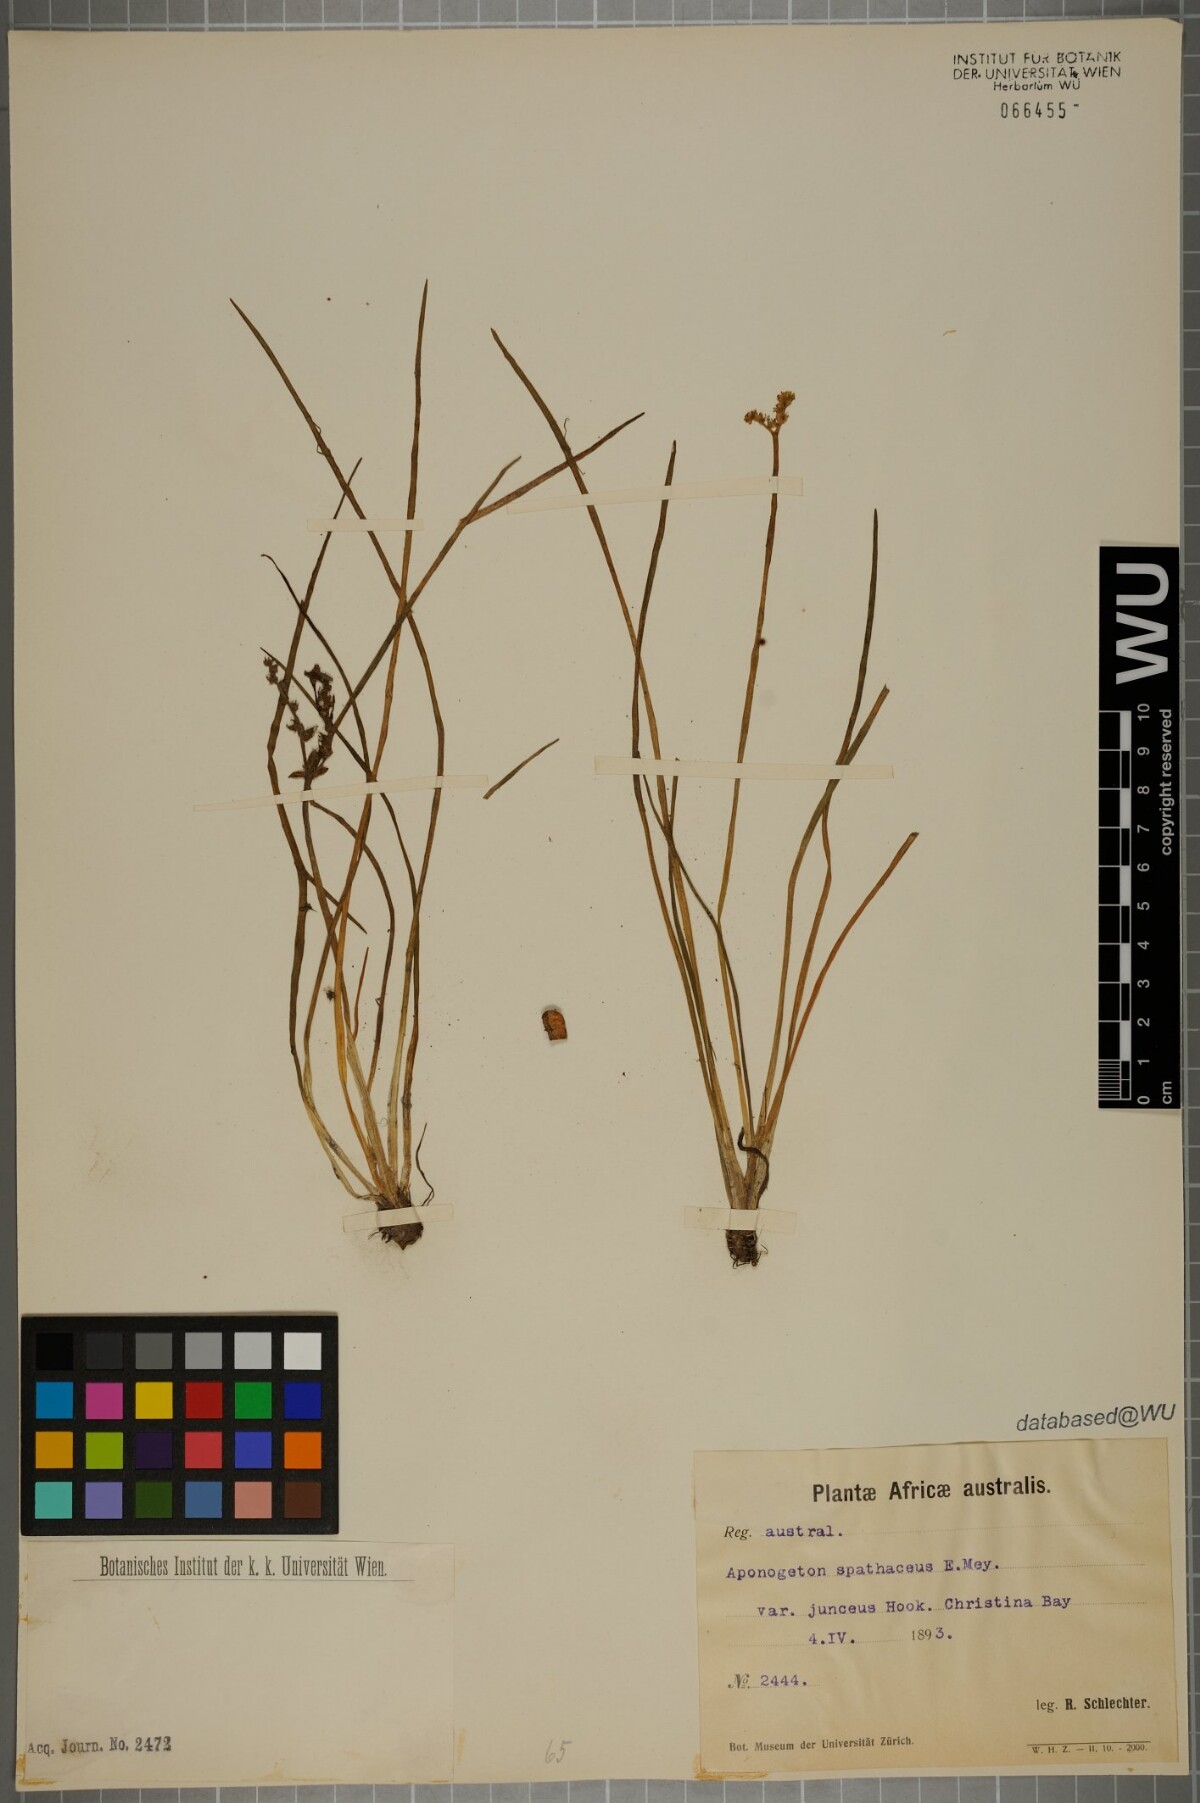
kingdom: Plantae
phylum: Tracheophyta
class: Liliopsida
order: Alismatales
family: Aponogetonaceae
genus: Aponogeton
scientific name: Aponogeton junceus
